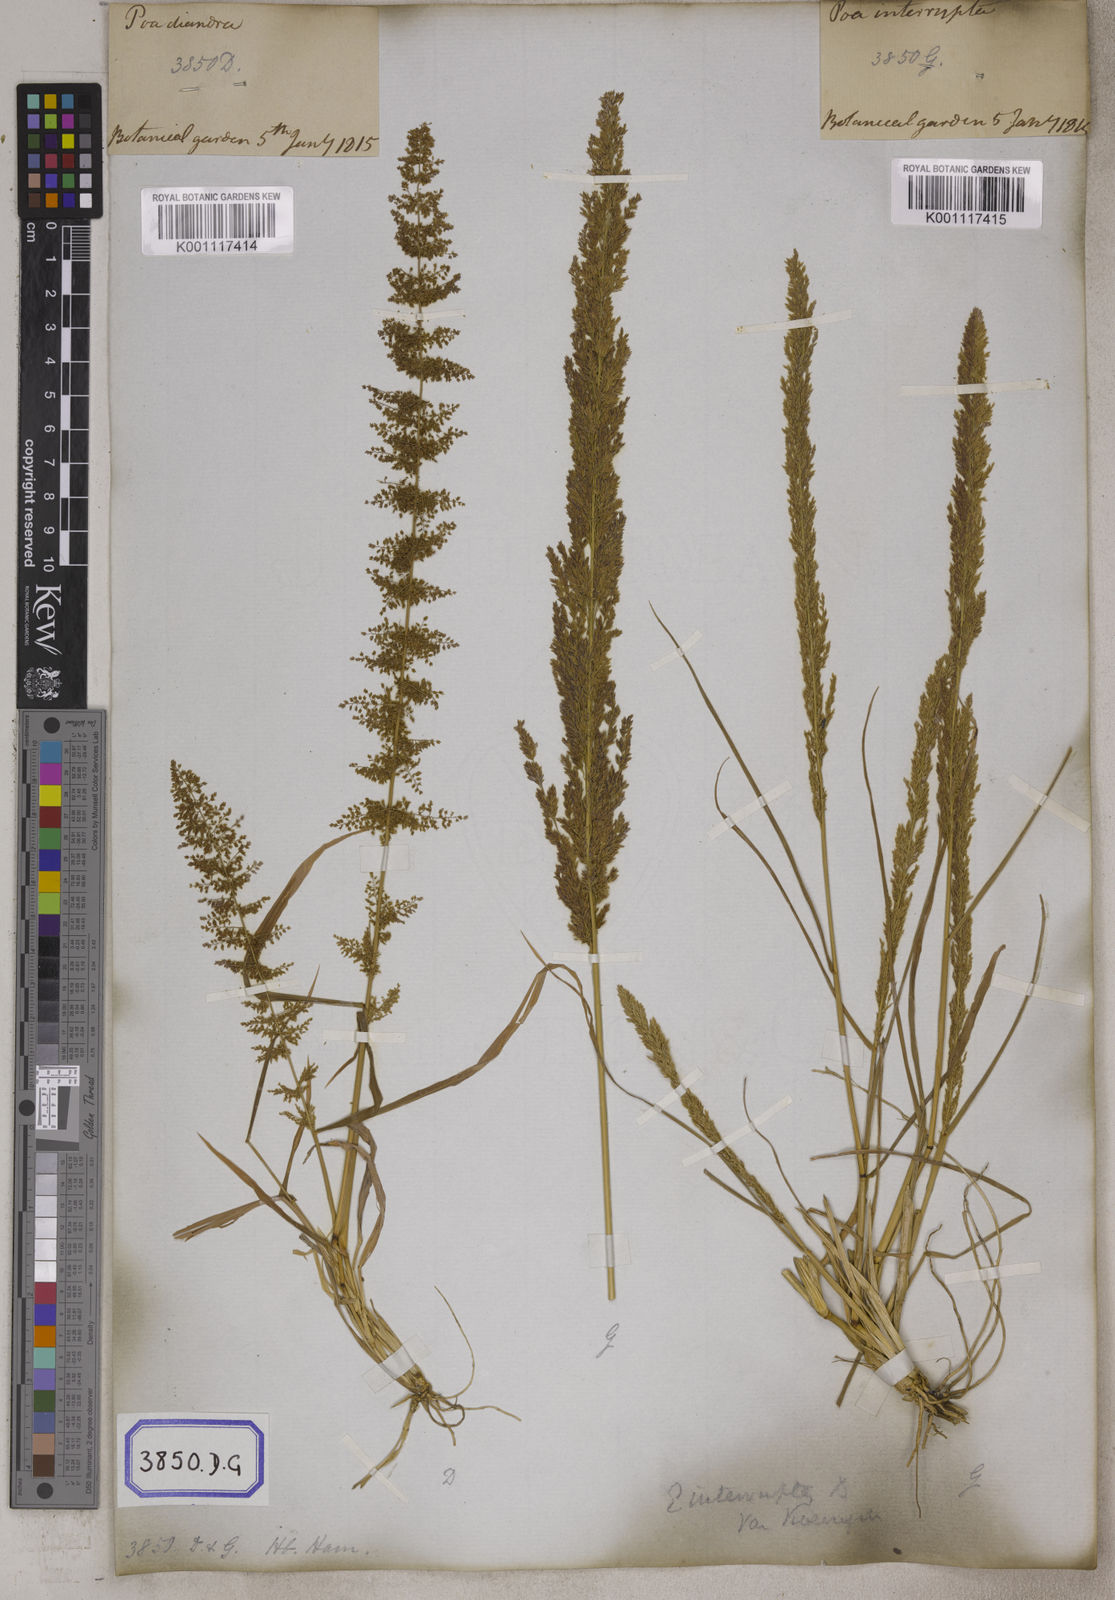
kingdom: Plantae
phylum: Tracheophyta
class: Liliopsida
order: Poales
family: Poaceae
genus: Eragrostis
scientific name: Eragrostis
